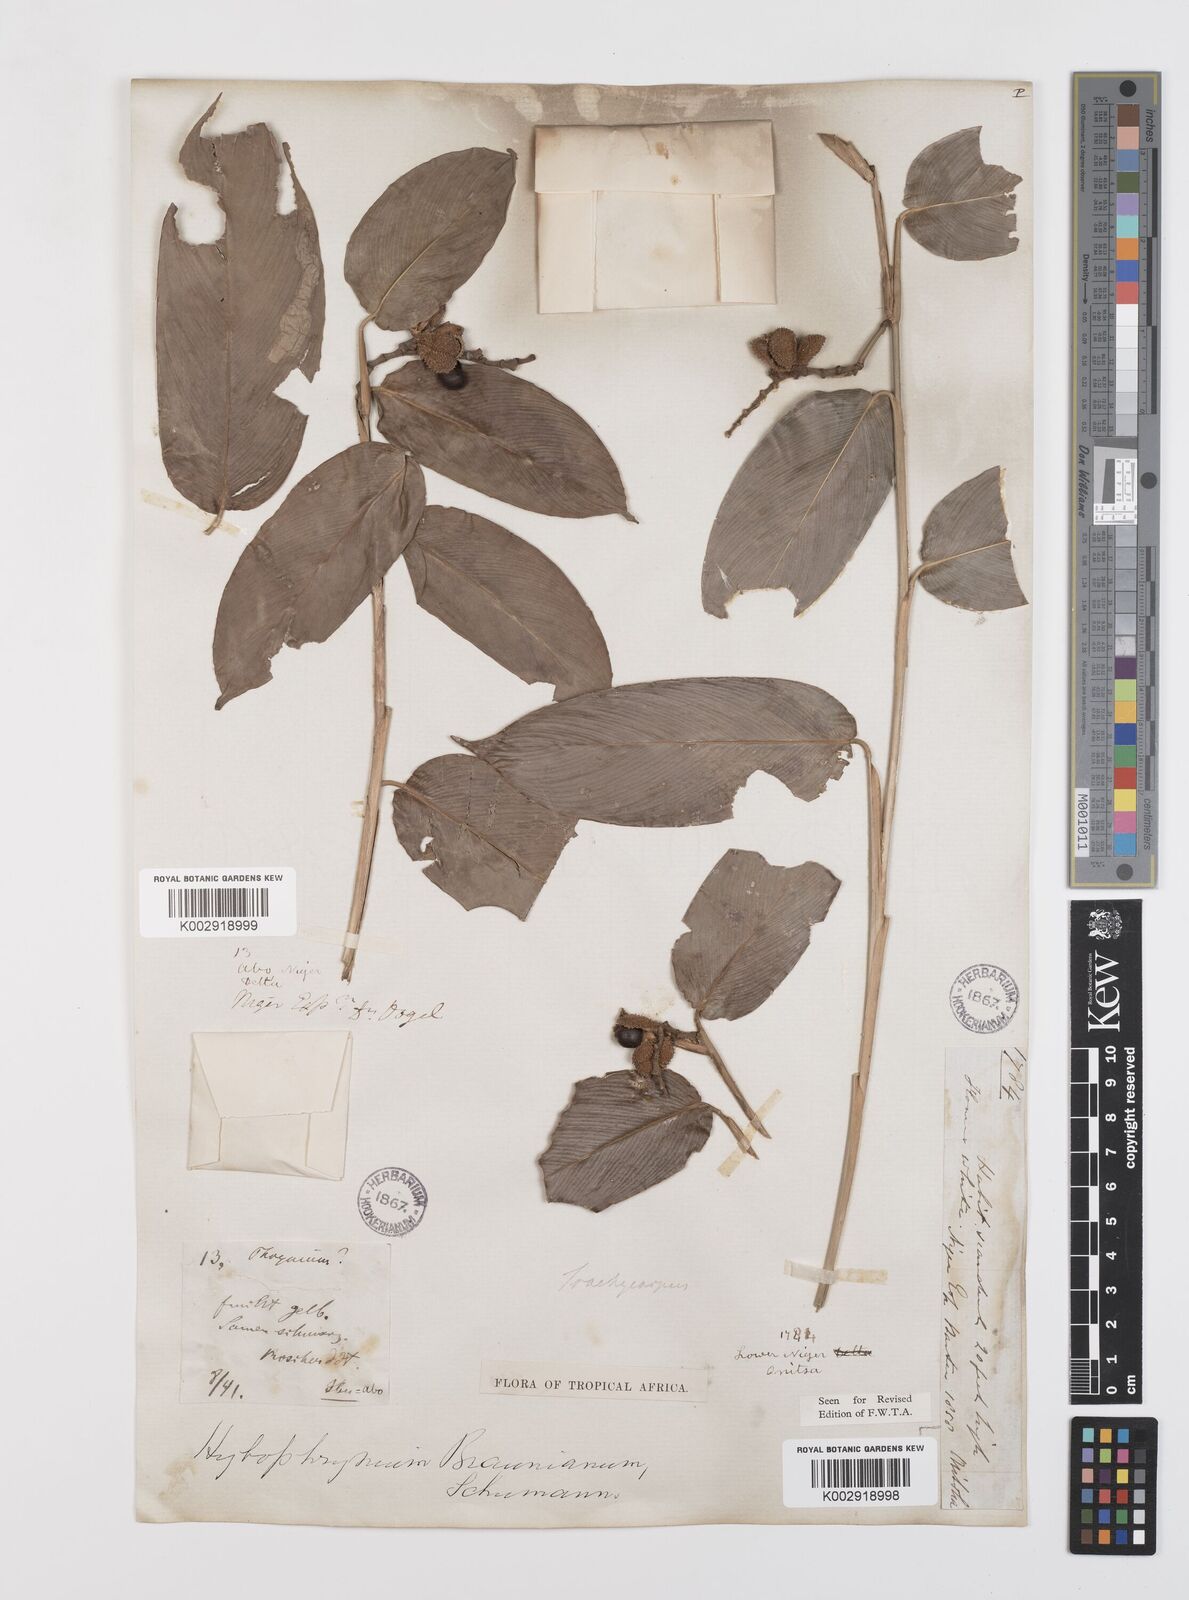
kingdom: Plantae
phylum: Tracheophyta
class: Liliopsida
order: Zingiberales
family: Marantaceae
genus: Trachyphrynium
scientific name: Trachyphrynium braunianum
